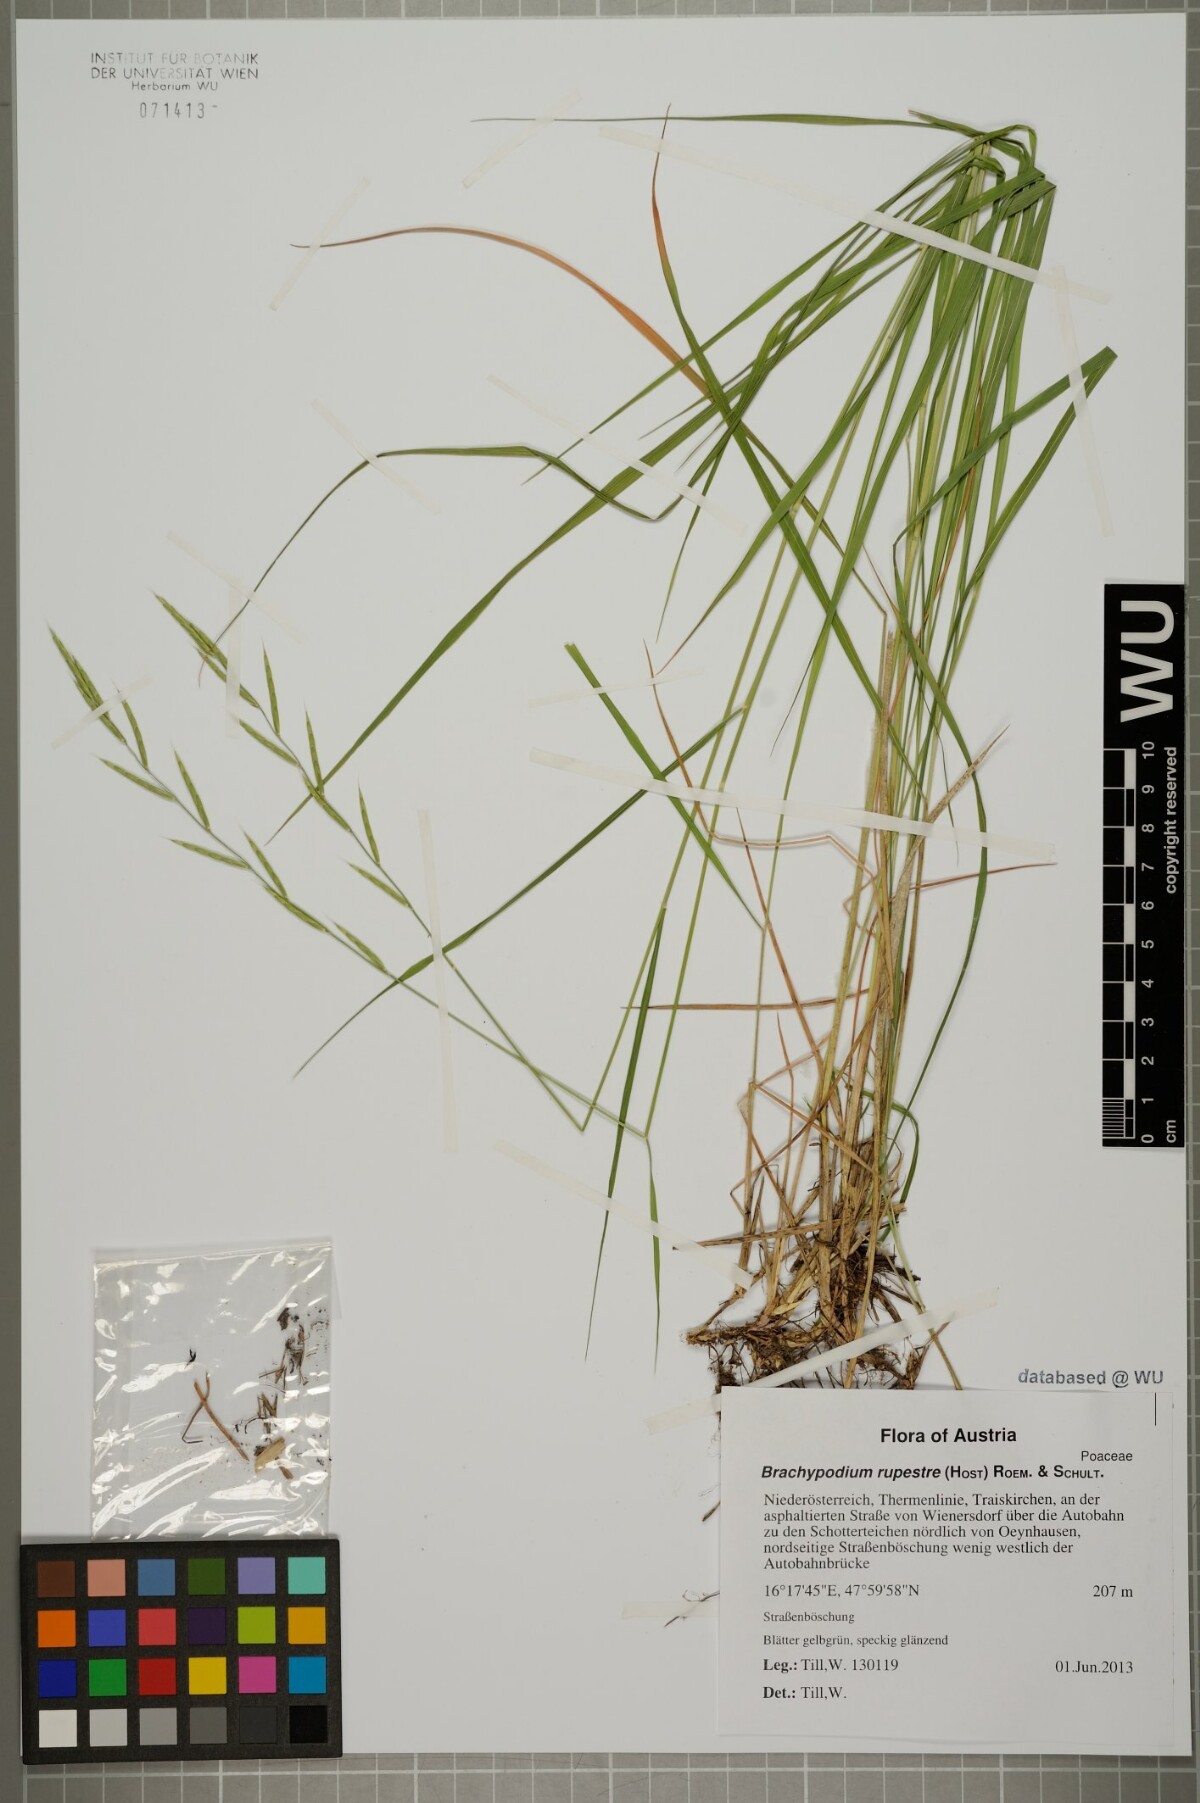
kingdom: Plantae
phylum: Tracheophyta
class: Liliopsida
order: Poales
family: Poaceae
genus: Brachypodium
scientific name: Brachypodium pinnatum
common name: Tor grass
